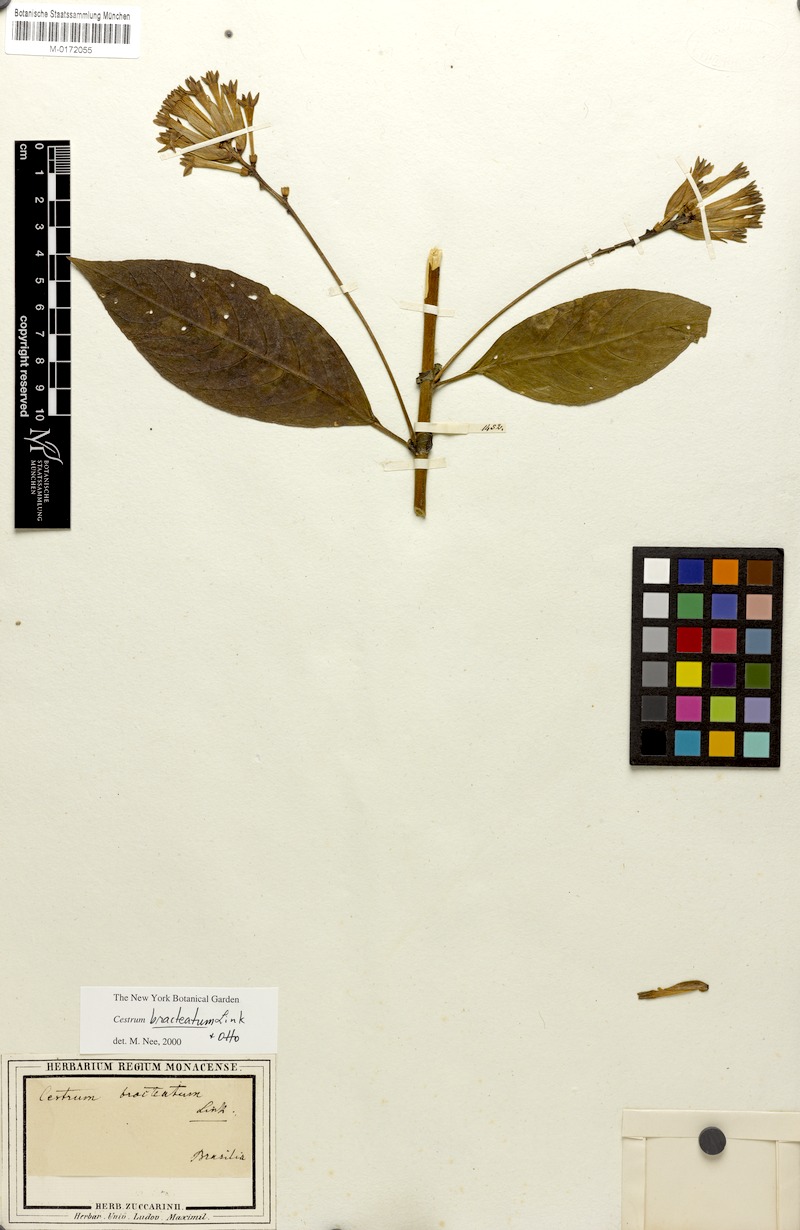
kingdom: Plantae
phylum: Tracheophyta
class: Magnoliopsida
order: Solanales
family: Solanaceae
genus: Cestrum
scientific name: Cestrum bracteatum
